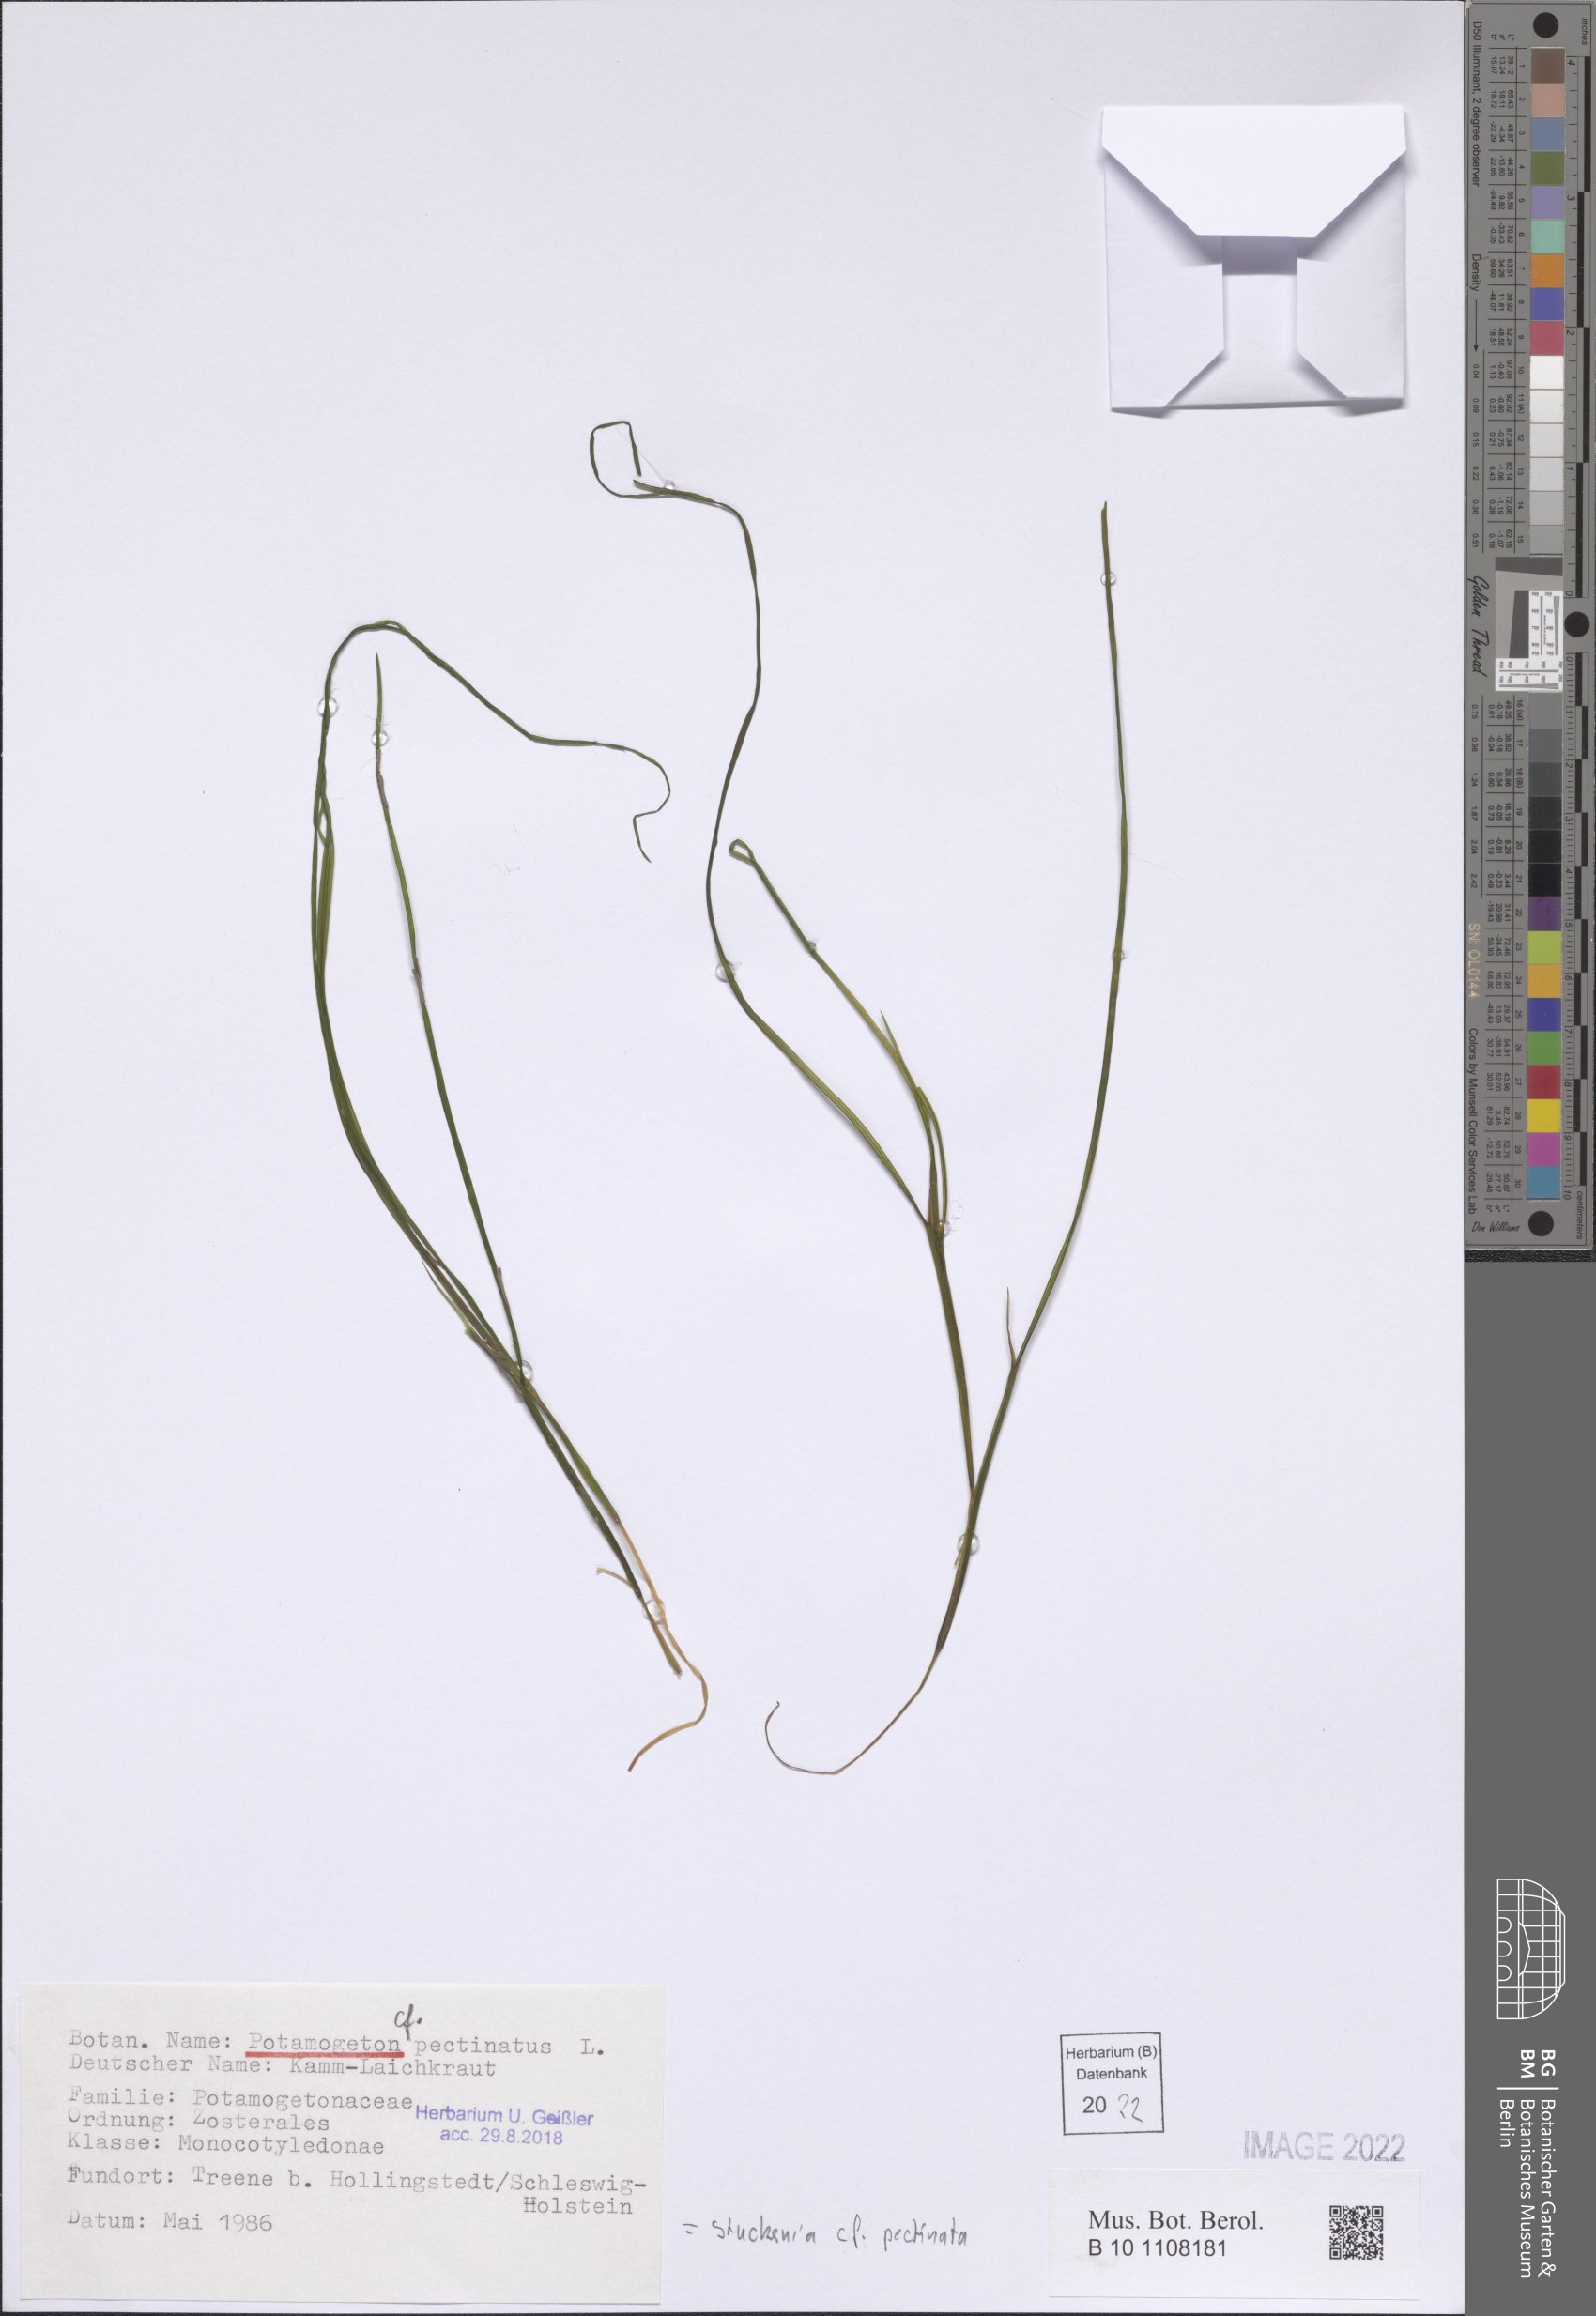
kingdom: Plantae
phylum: Tracheophyta
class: Liliopsida
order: Alismatales
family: Potamogetonaceae
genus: Stuckenia
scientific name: Stuckenia pectinata
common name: Sago pondweed
